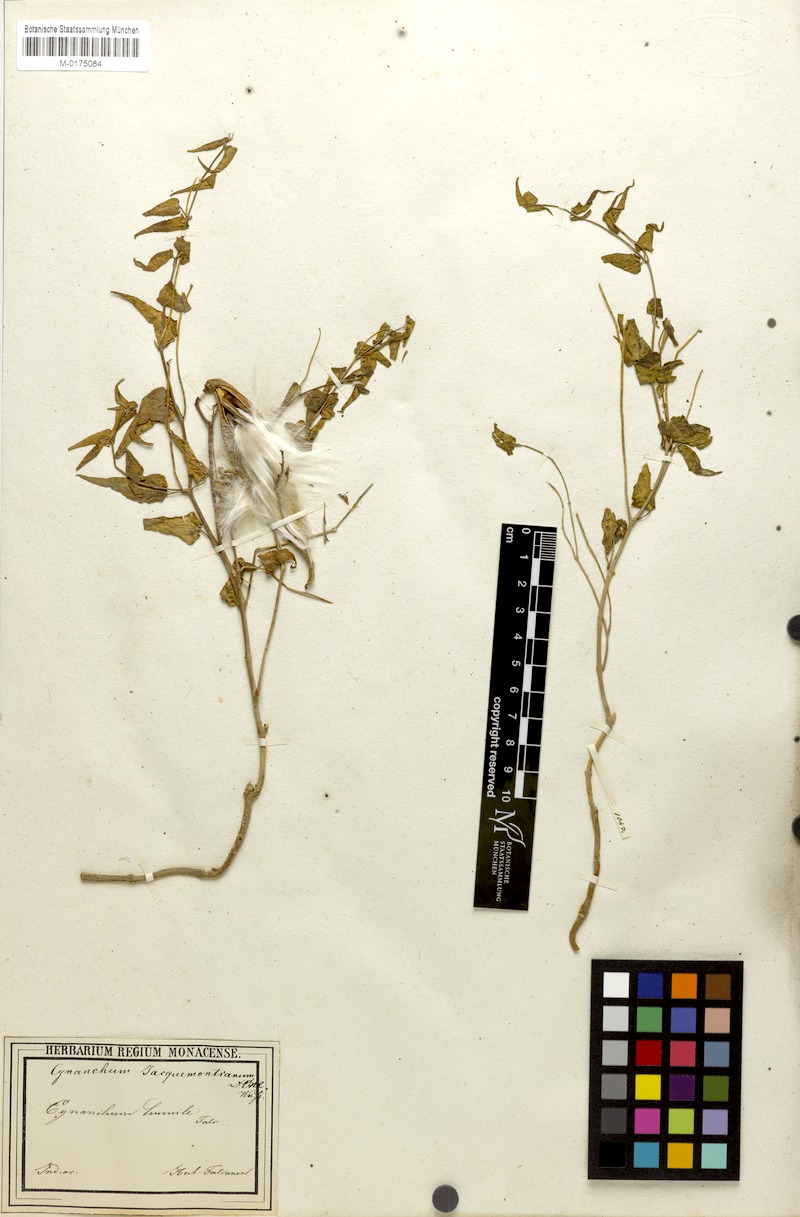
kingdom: Plantae
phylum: Tracheophyta
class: Magnoliopsida
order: Gentianales
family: Apocynaceae
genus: Vincetoxicum
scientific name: Vincetoxicum jacquemontianum
